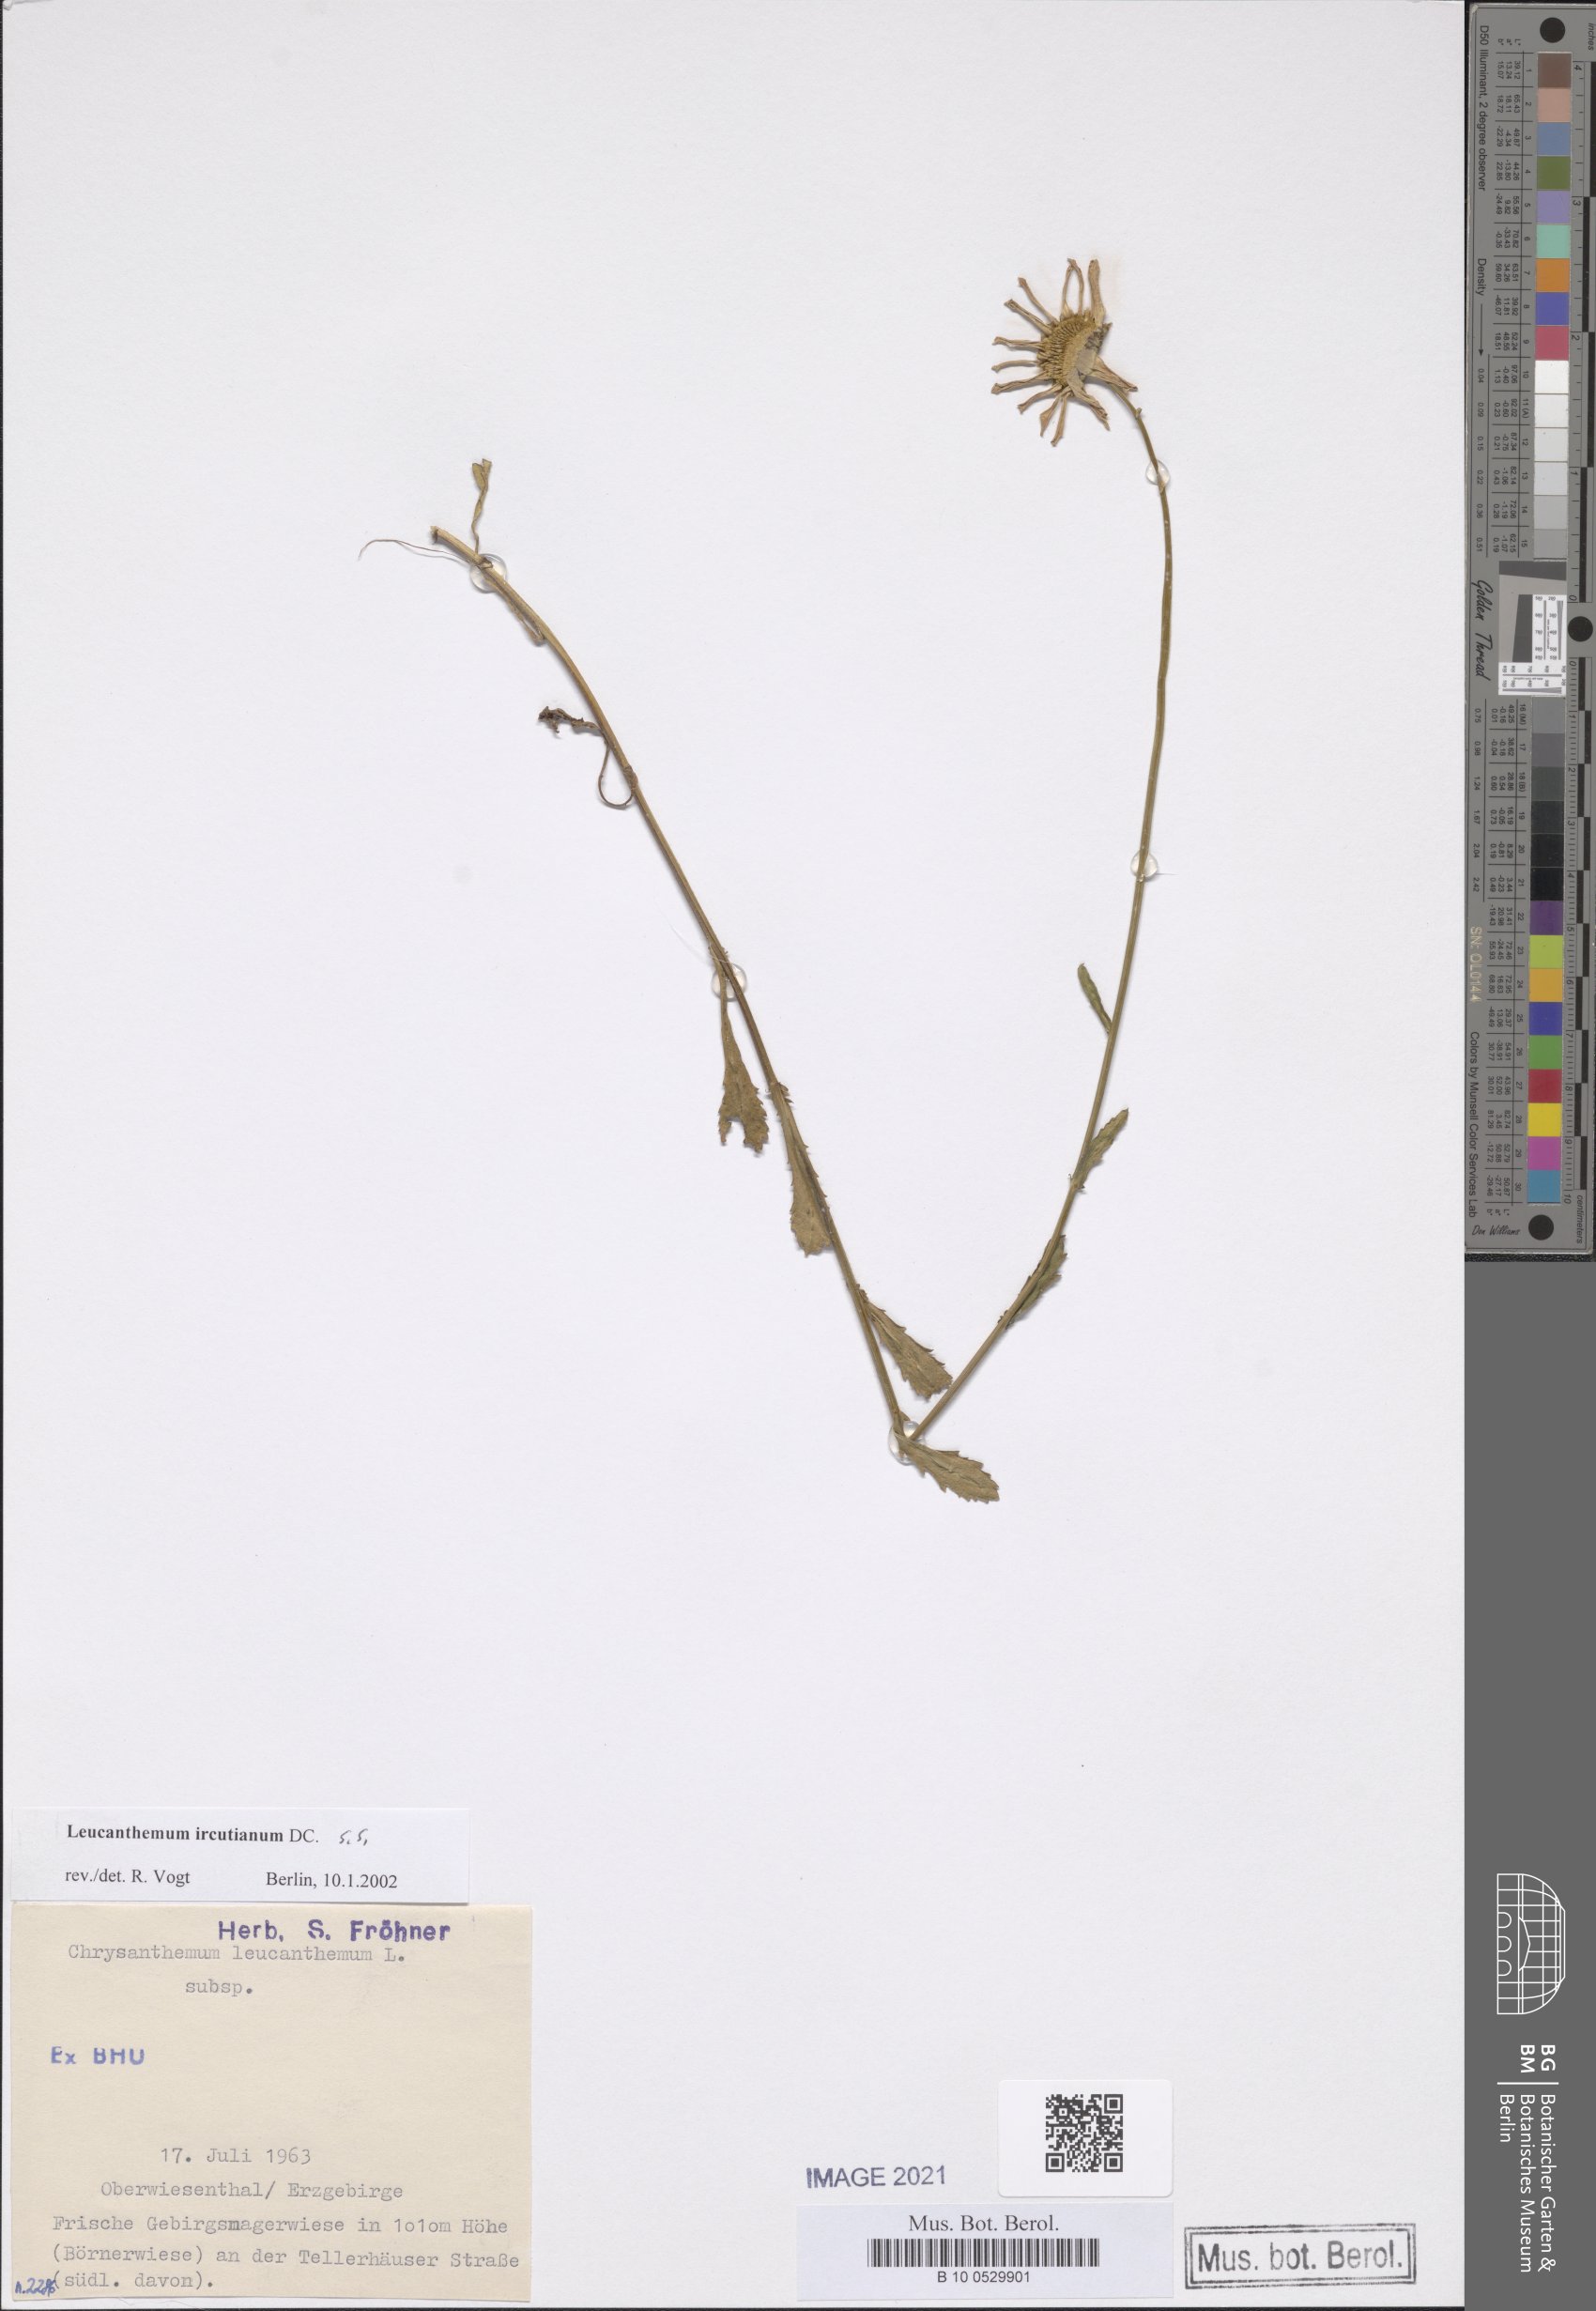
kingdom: Plantae
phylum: Tracheophyta
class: Magnoliopsida
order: Asterales
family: Asteraceae
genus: Leucanthemum
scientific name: Leucanthemum ircutianum
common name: Daisy
